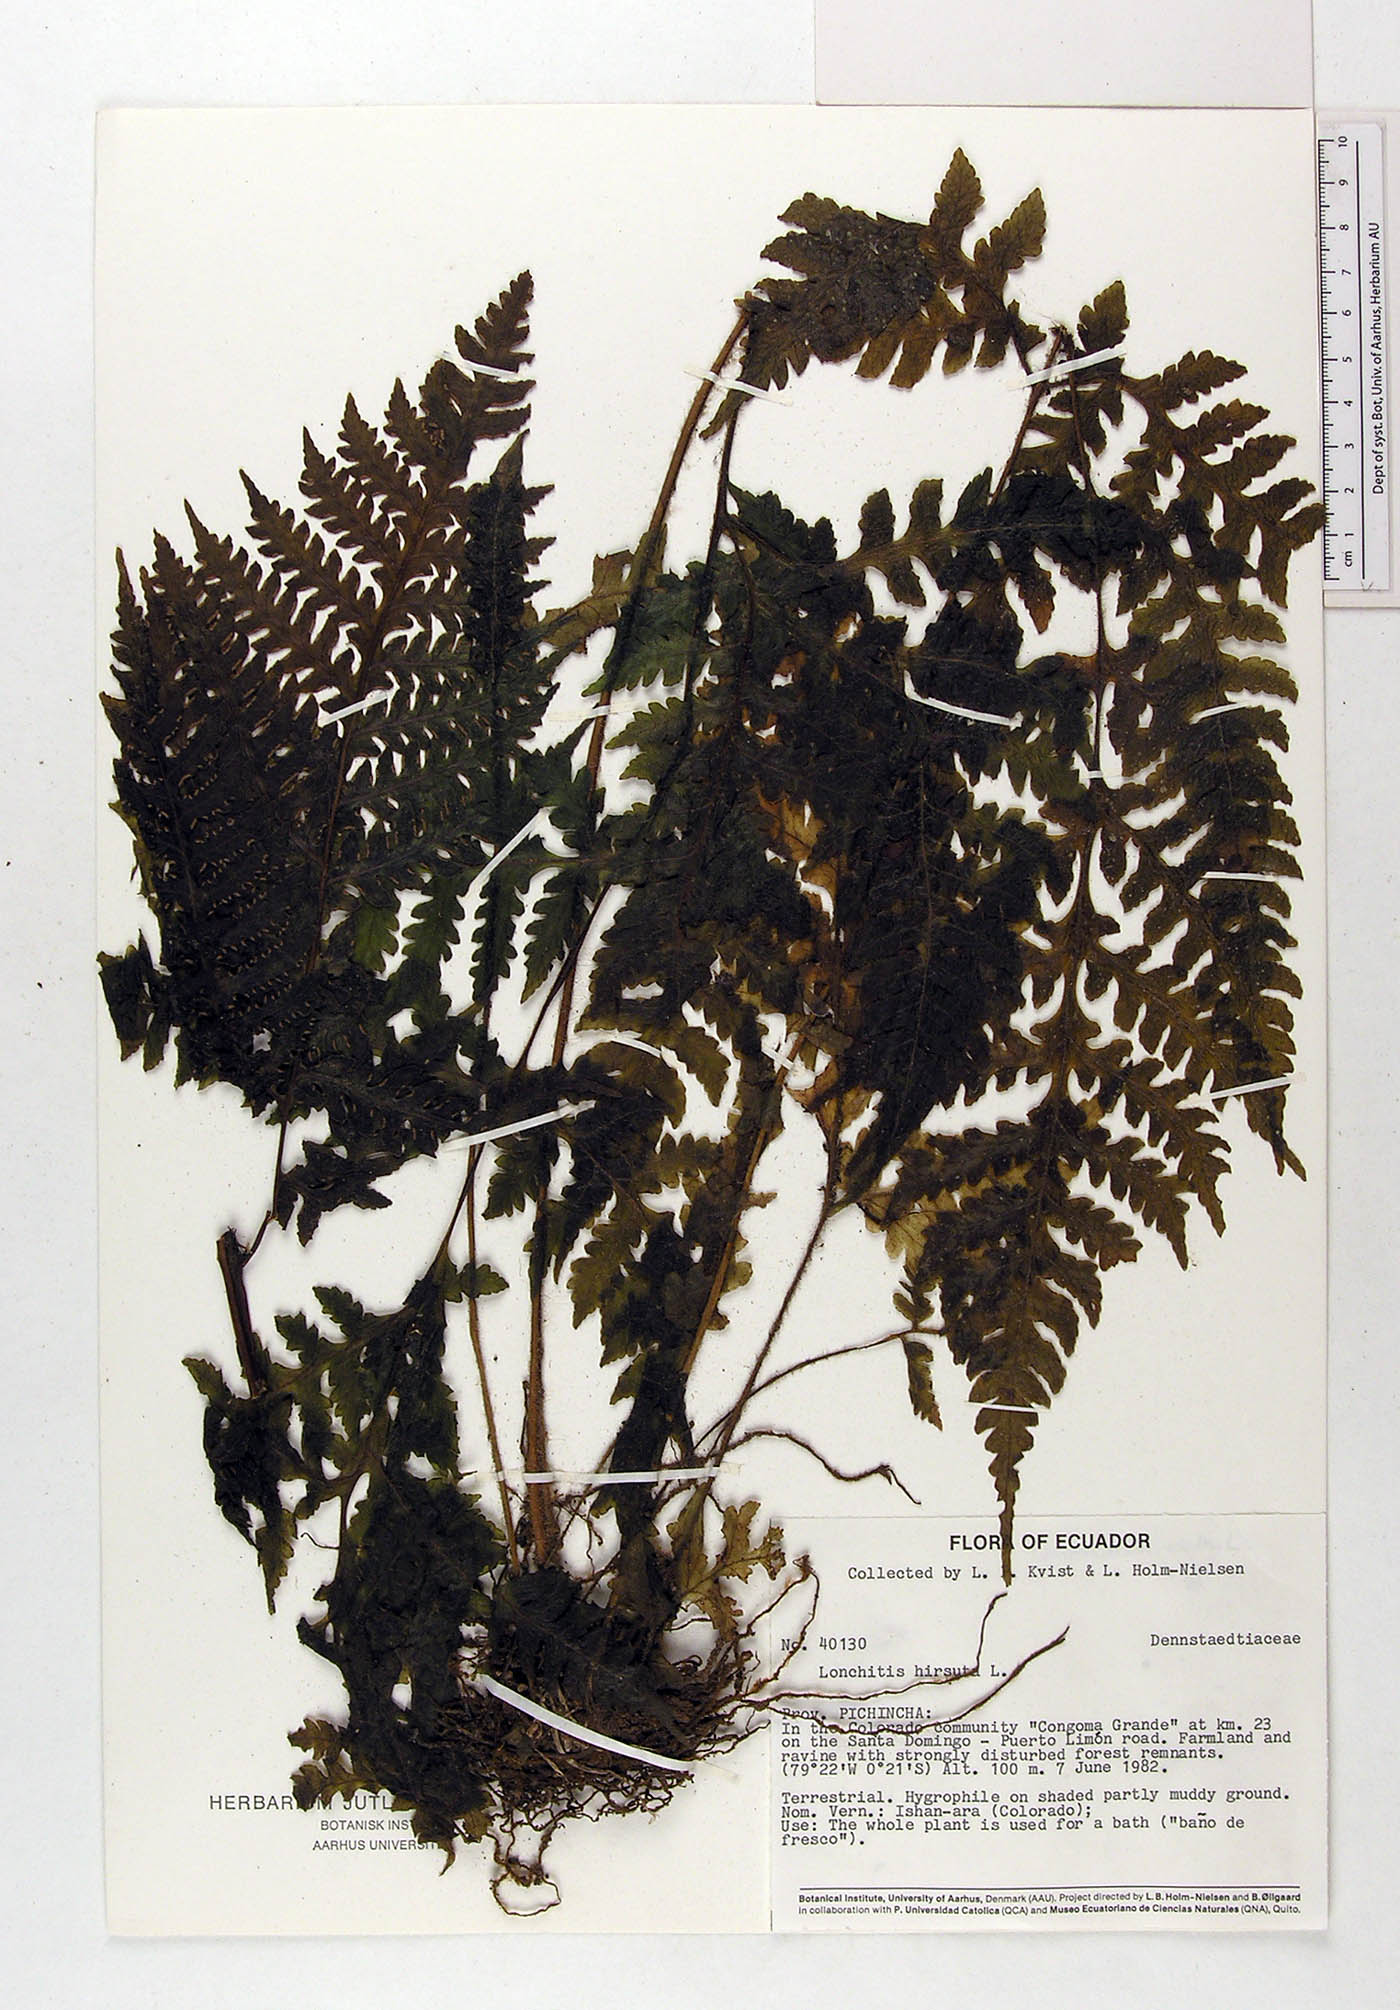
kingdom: Plantae
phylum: Tracheophyta
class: Polypodiopsida
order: Polypodiales
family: Lonchitidaceae
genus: Lonchitis
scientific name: Lonchitis hirsuta
